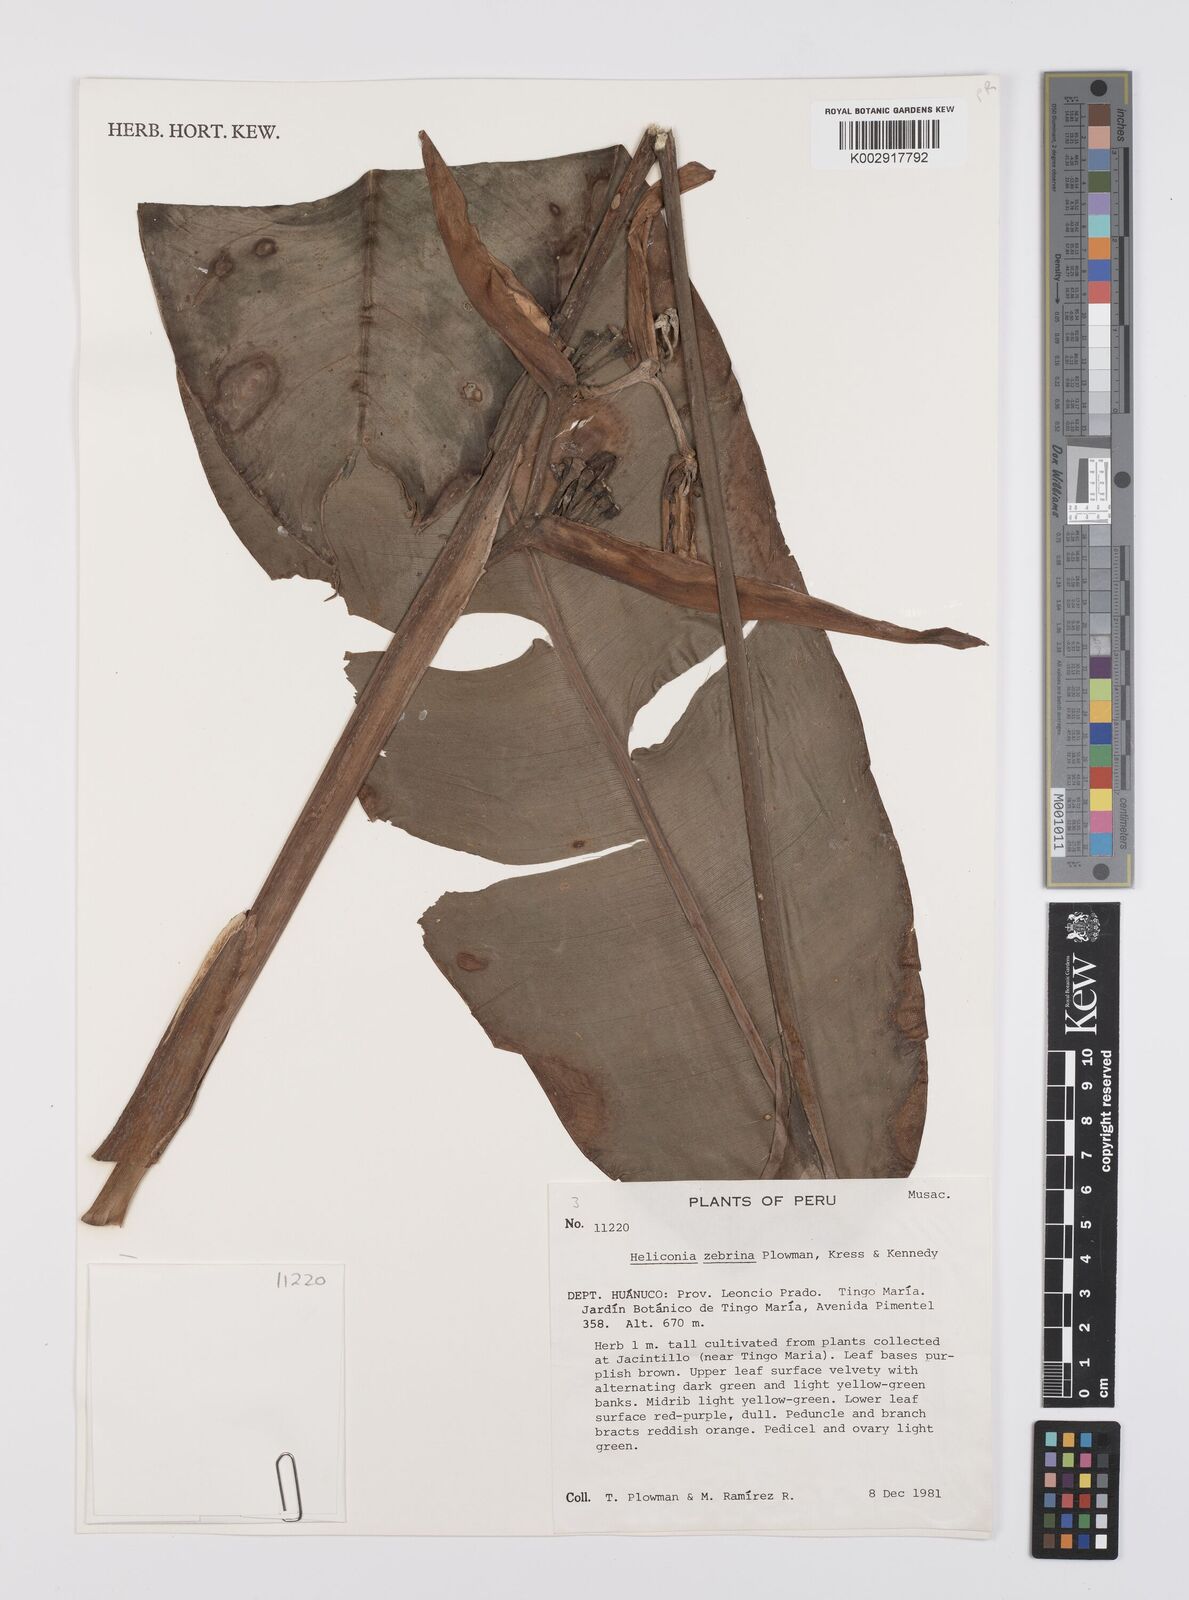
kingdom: Plantae
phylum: Tracheophyta
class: Liliopsida
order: Zingiberales
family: Heliconiaceae
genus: Heliconia
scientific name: Heliconia zebrina
